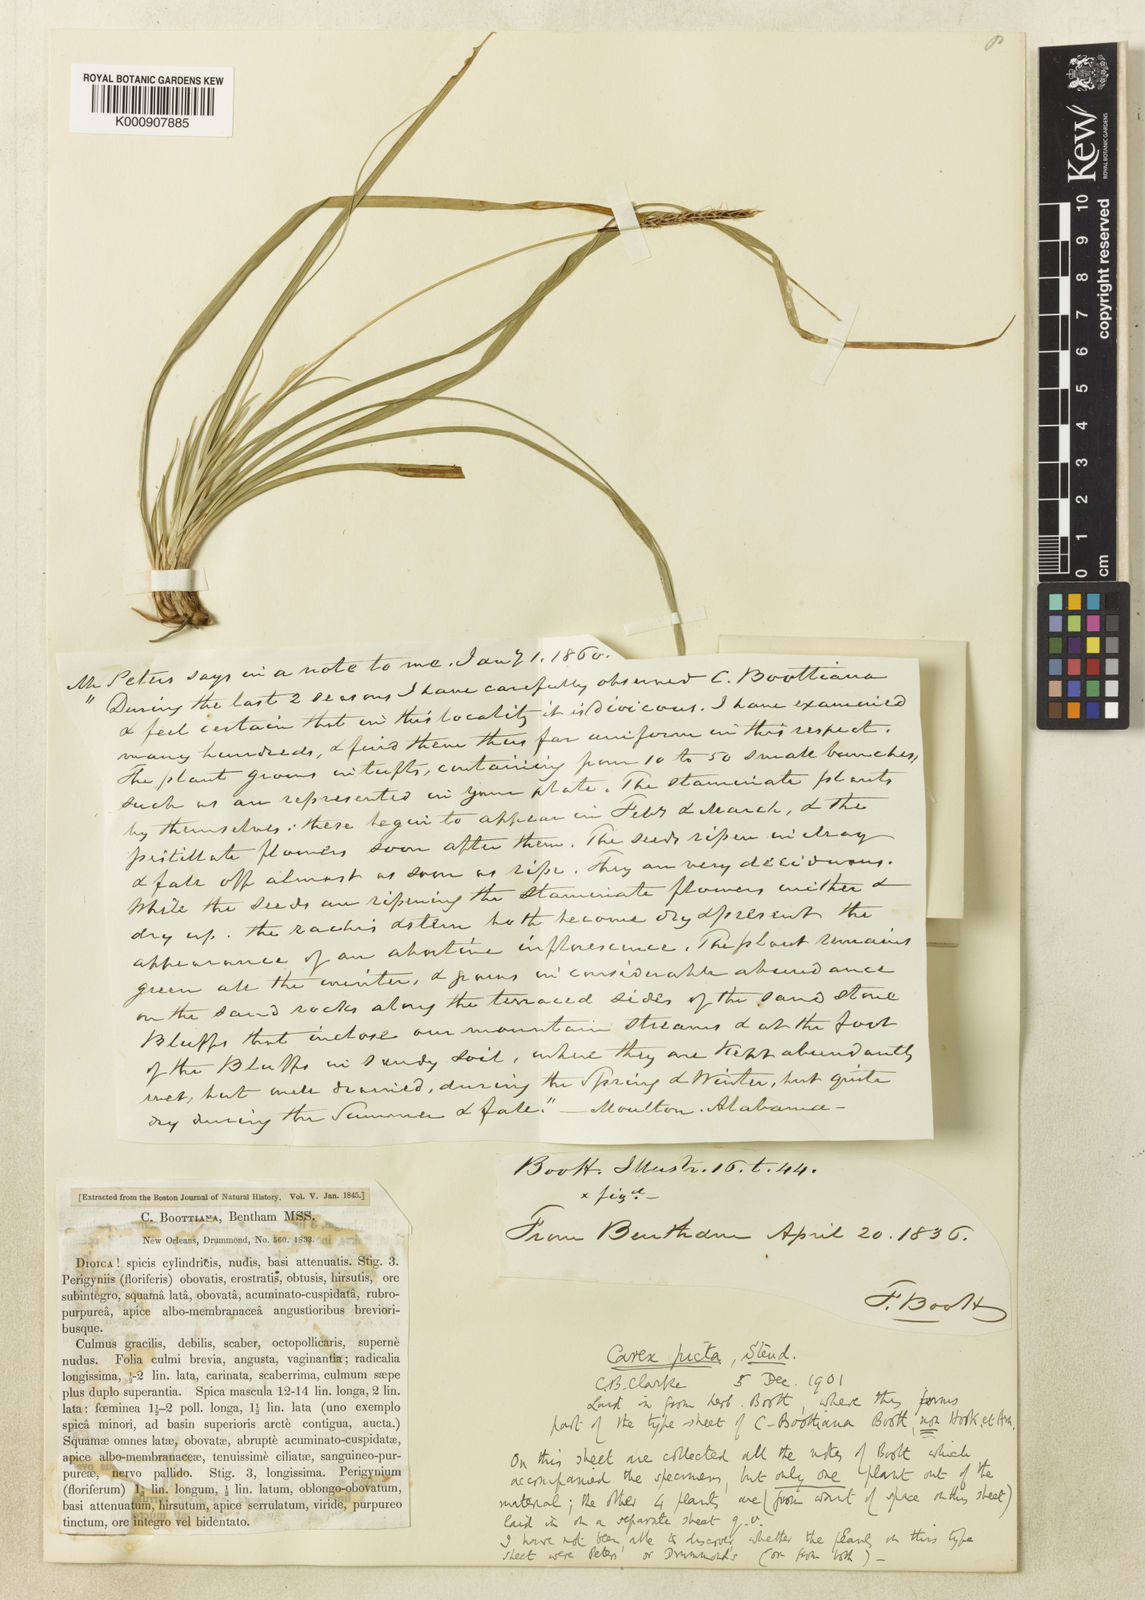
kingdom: Plantae
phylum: Tracheophyta
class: Liliopsida
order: Poales
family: Cyperaceae
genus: Carex
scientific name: Carex picta
